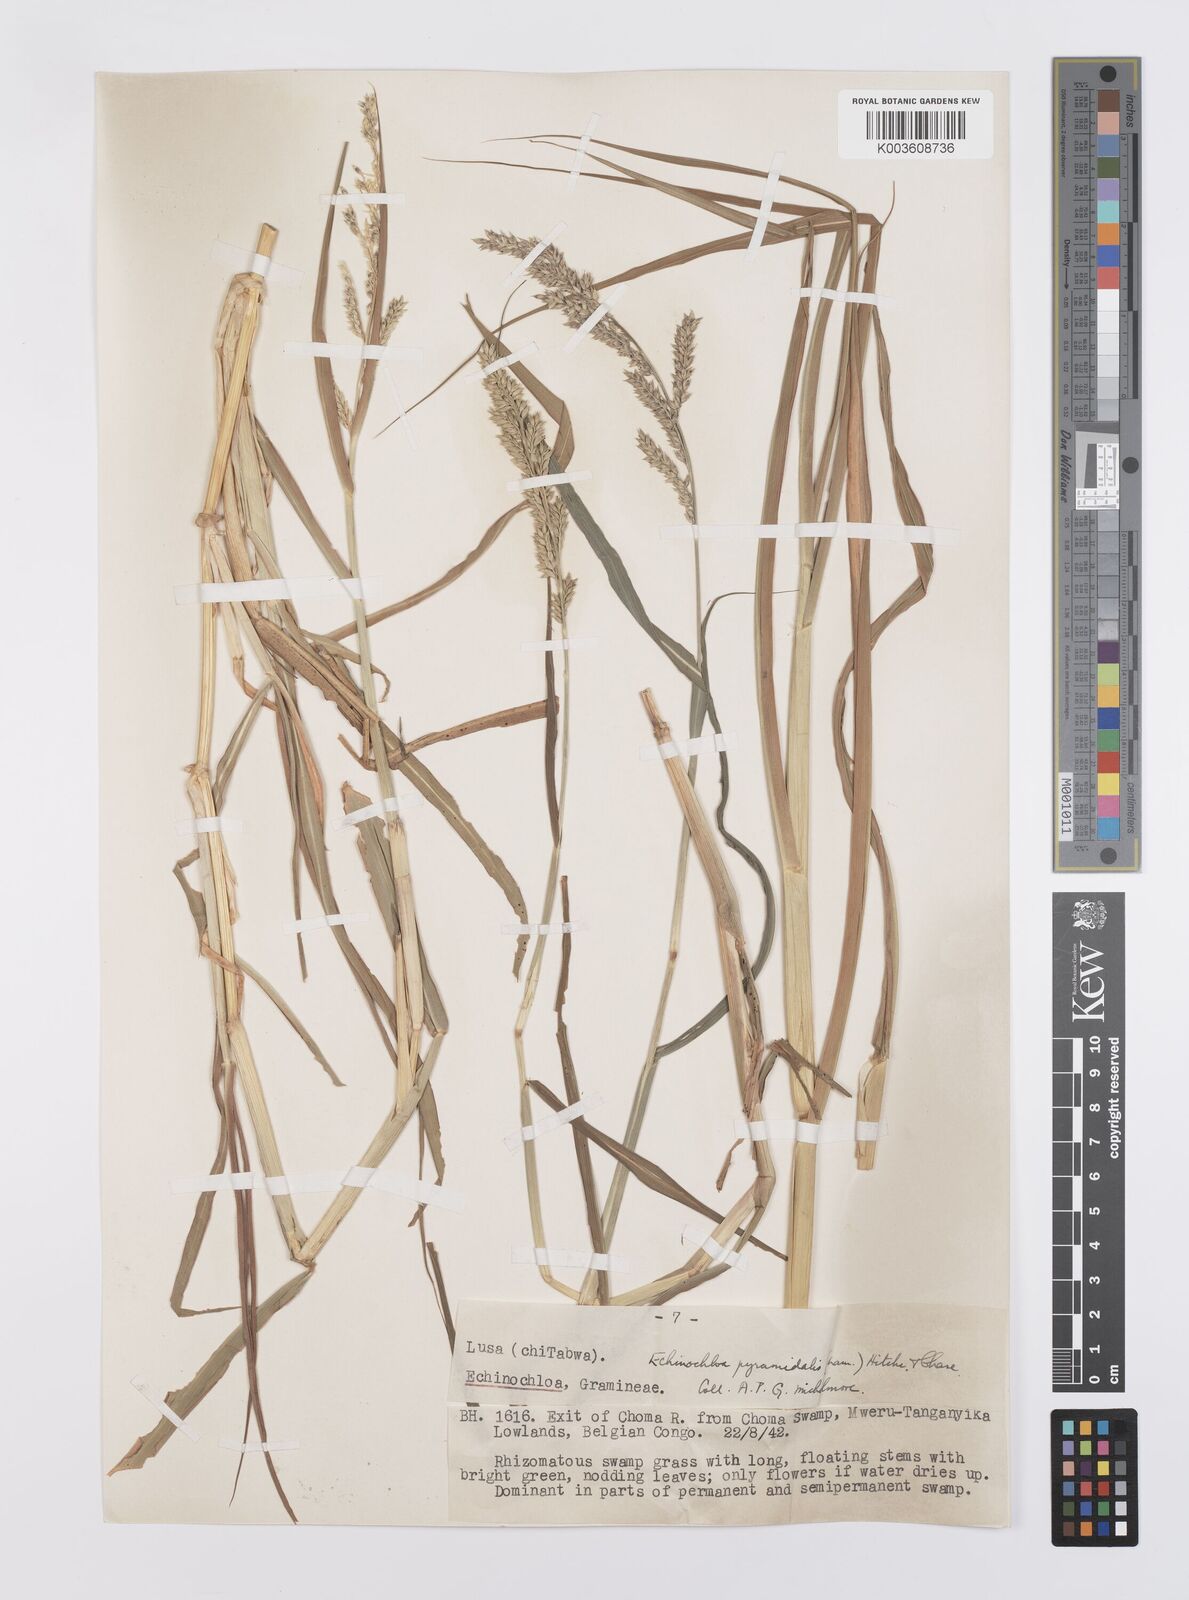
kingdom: Plantae
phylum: Tracheophyta
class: Liliopsida
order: Poales
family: Poaceae
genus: Echinochloa
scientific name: Echinochloa pyramidalis
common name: Antelope grass
